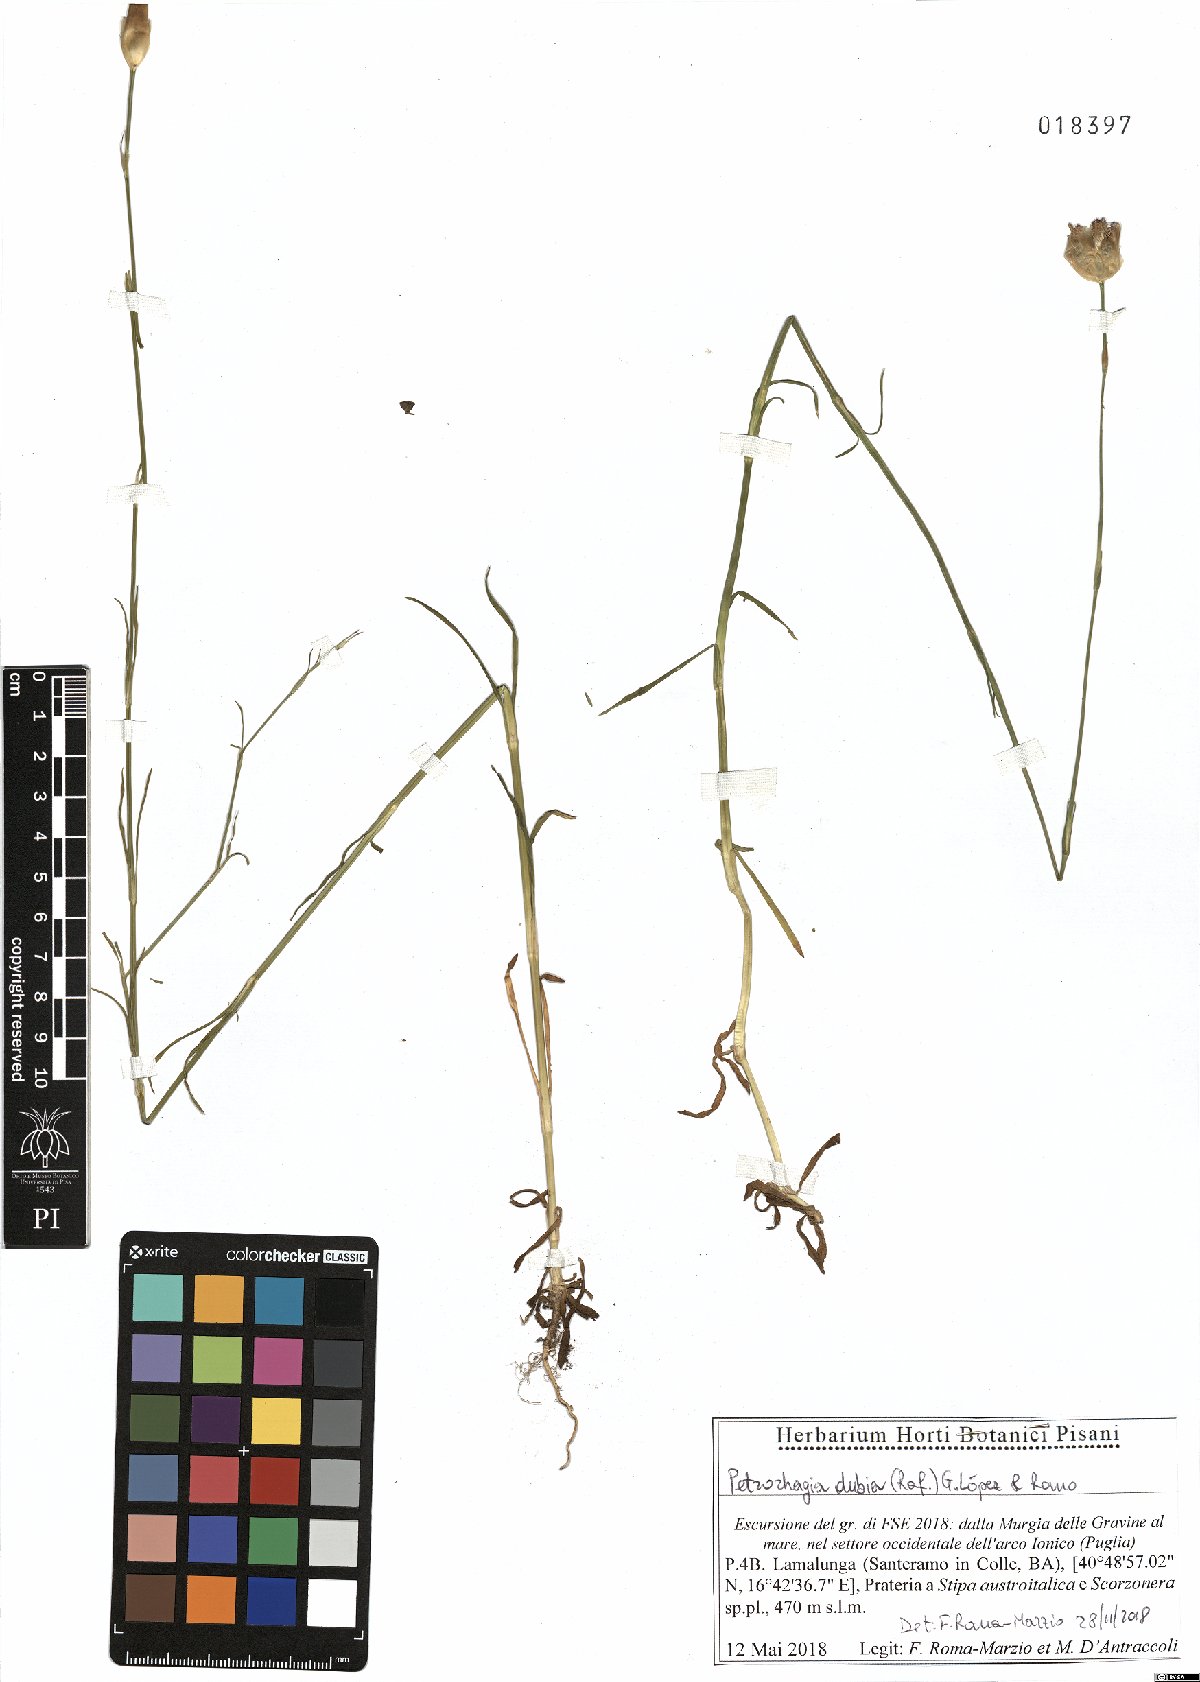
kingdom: Plantae
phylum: Tracheophyta
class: Magnoliopsida
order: Caryophyllales
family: Caryophyllaceae
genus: Petrorhagia
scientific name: Petrorhagia dubia
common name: Hairypink
